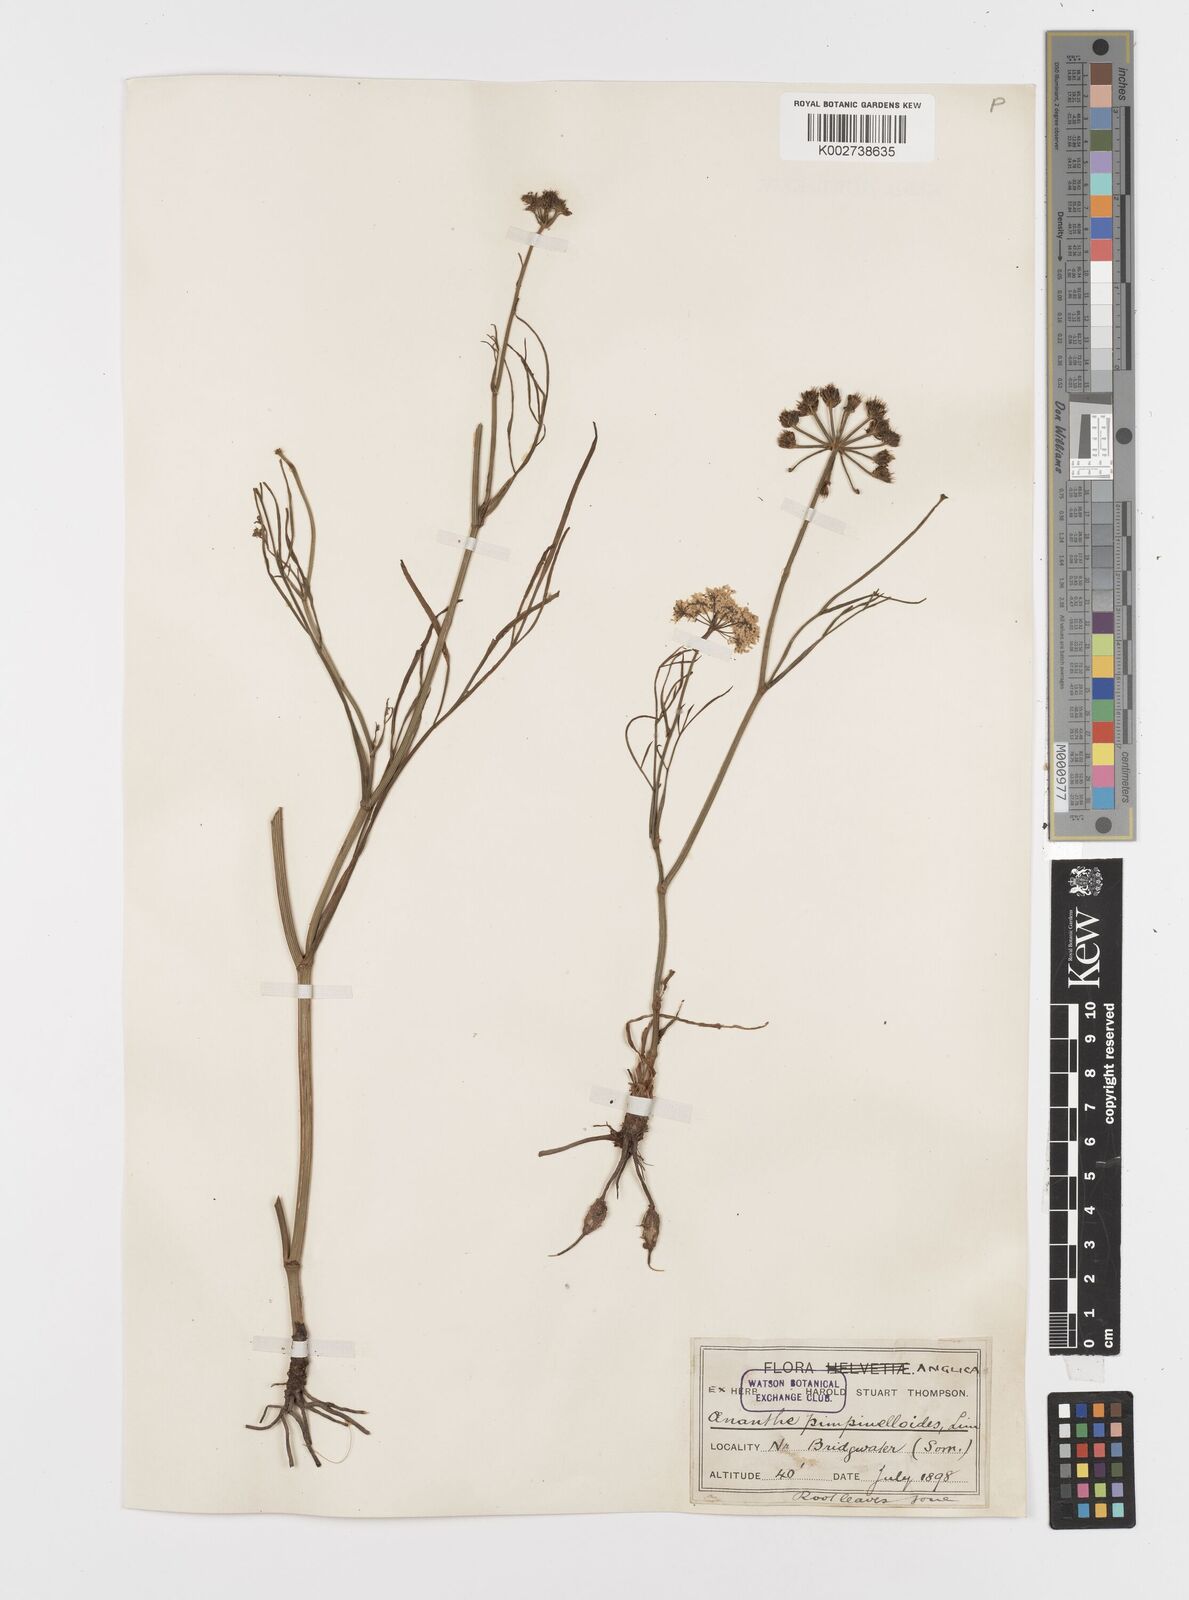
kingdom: Plantae
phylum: Tracheophyta
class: Magnoliopsida
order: Apiales
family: Apiaceae
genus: Oenanthe
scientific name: Oenanthe pimpinelloides
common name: Corky-fruited water-dropwort
